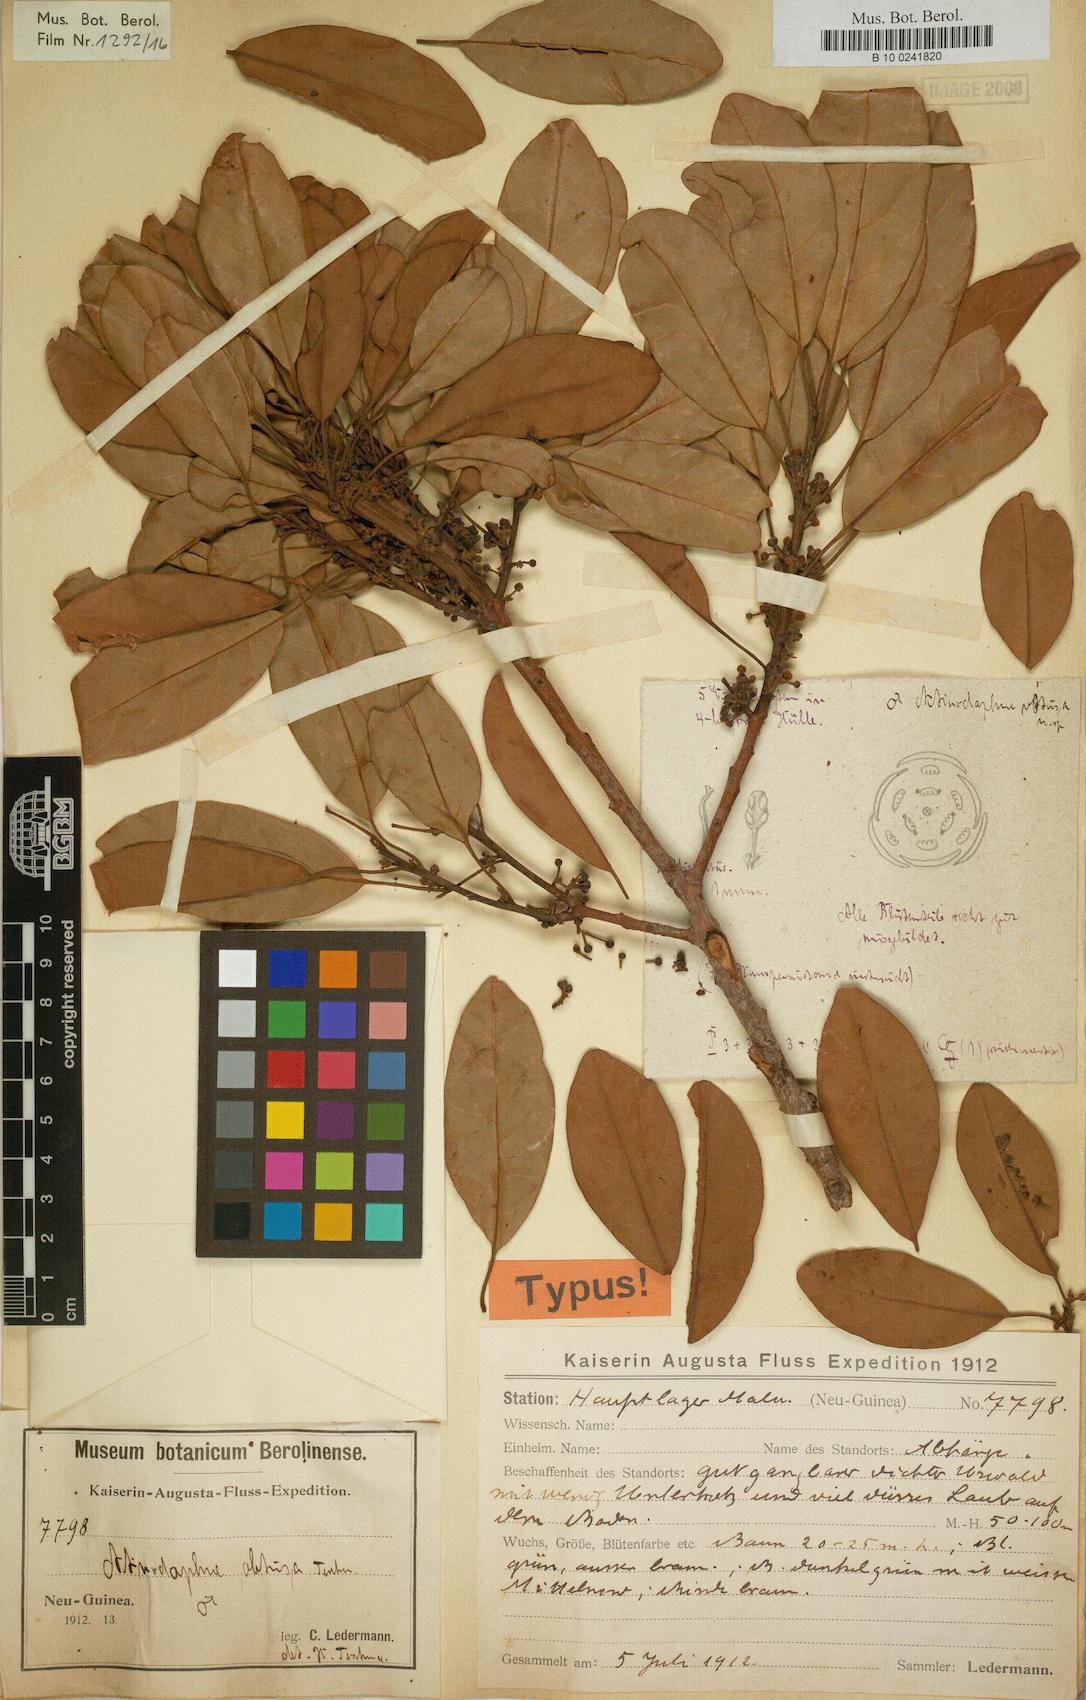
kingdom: Plantae
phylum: Tracheophyta
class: Magnoliopsida
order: Laurales
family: Lauraceae
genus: Actinodaphne
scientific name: Actinodaphne nitida
